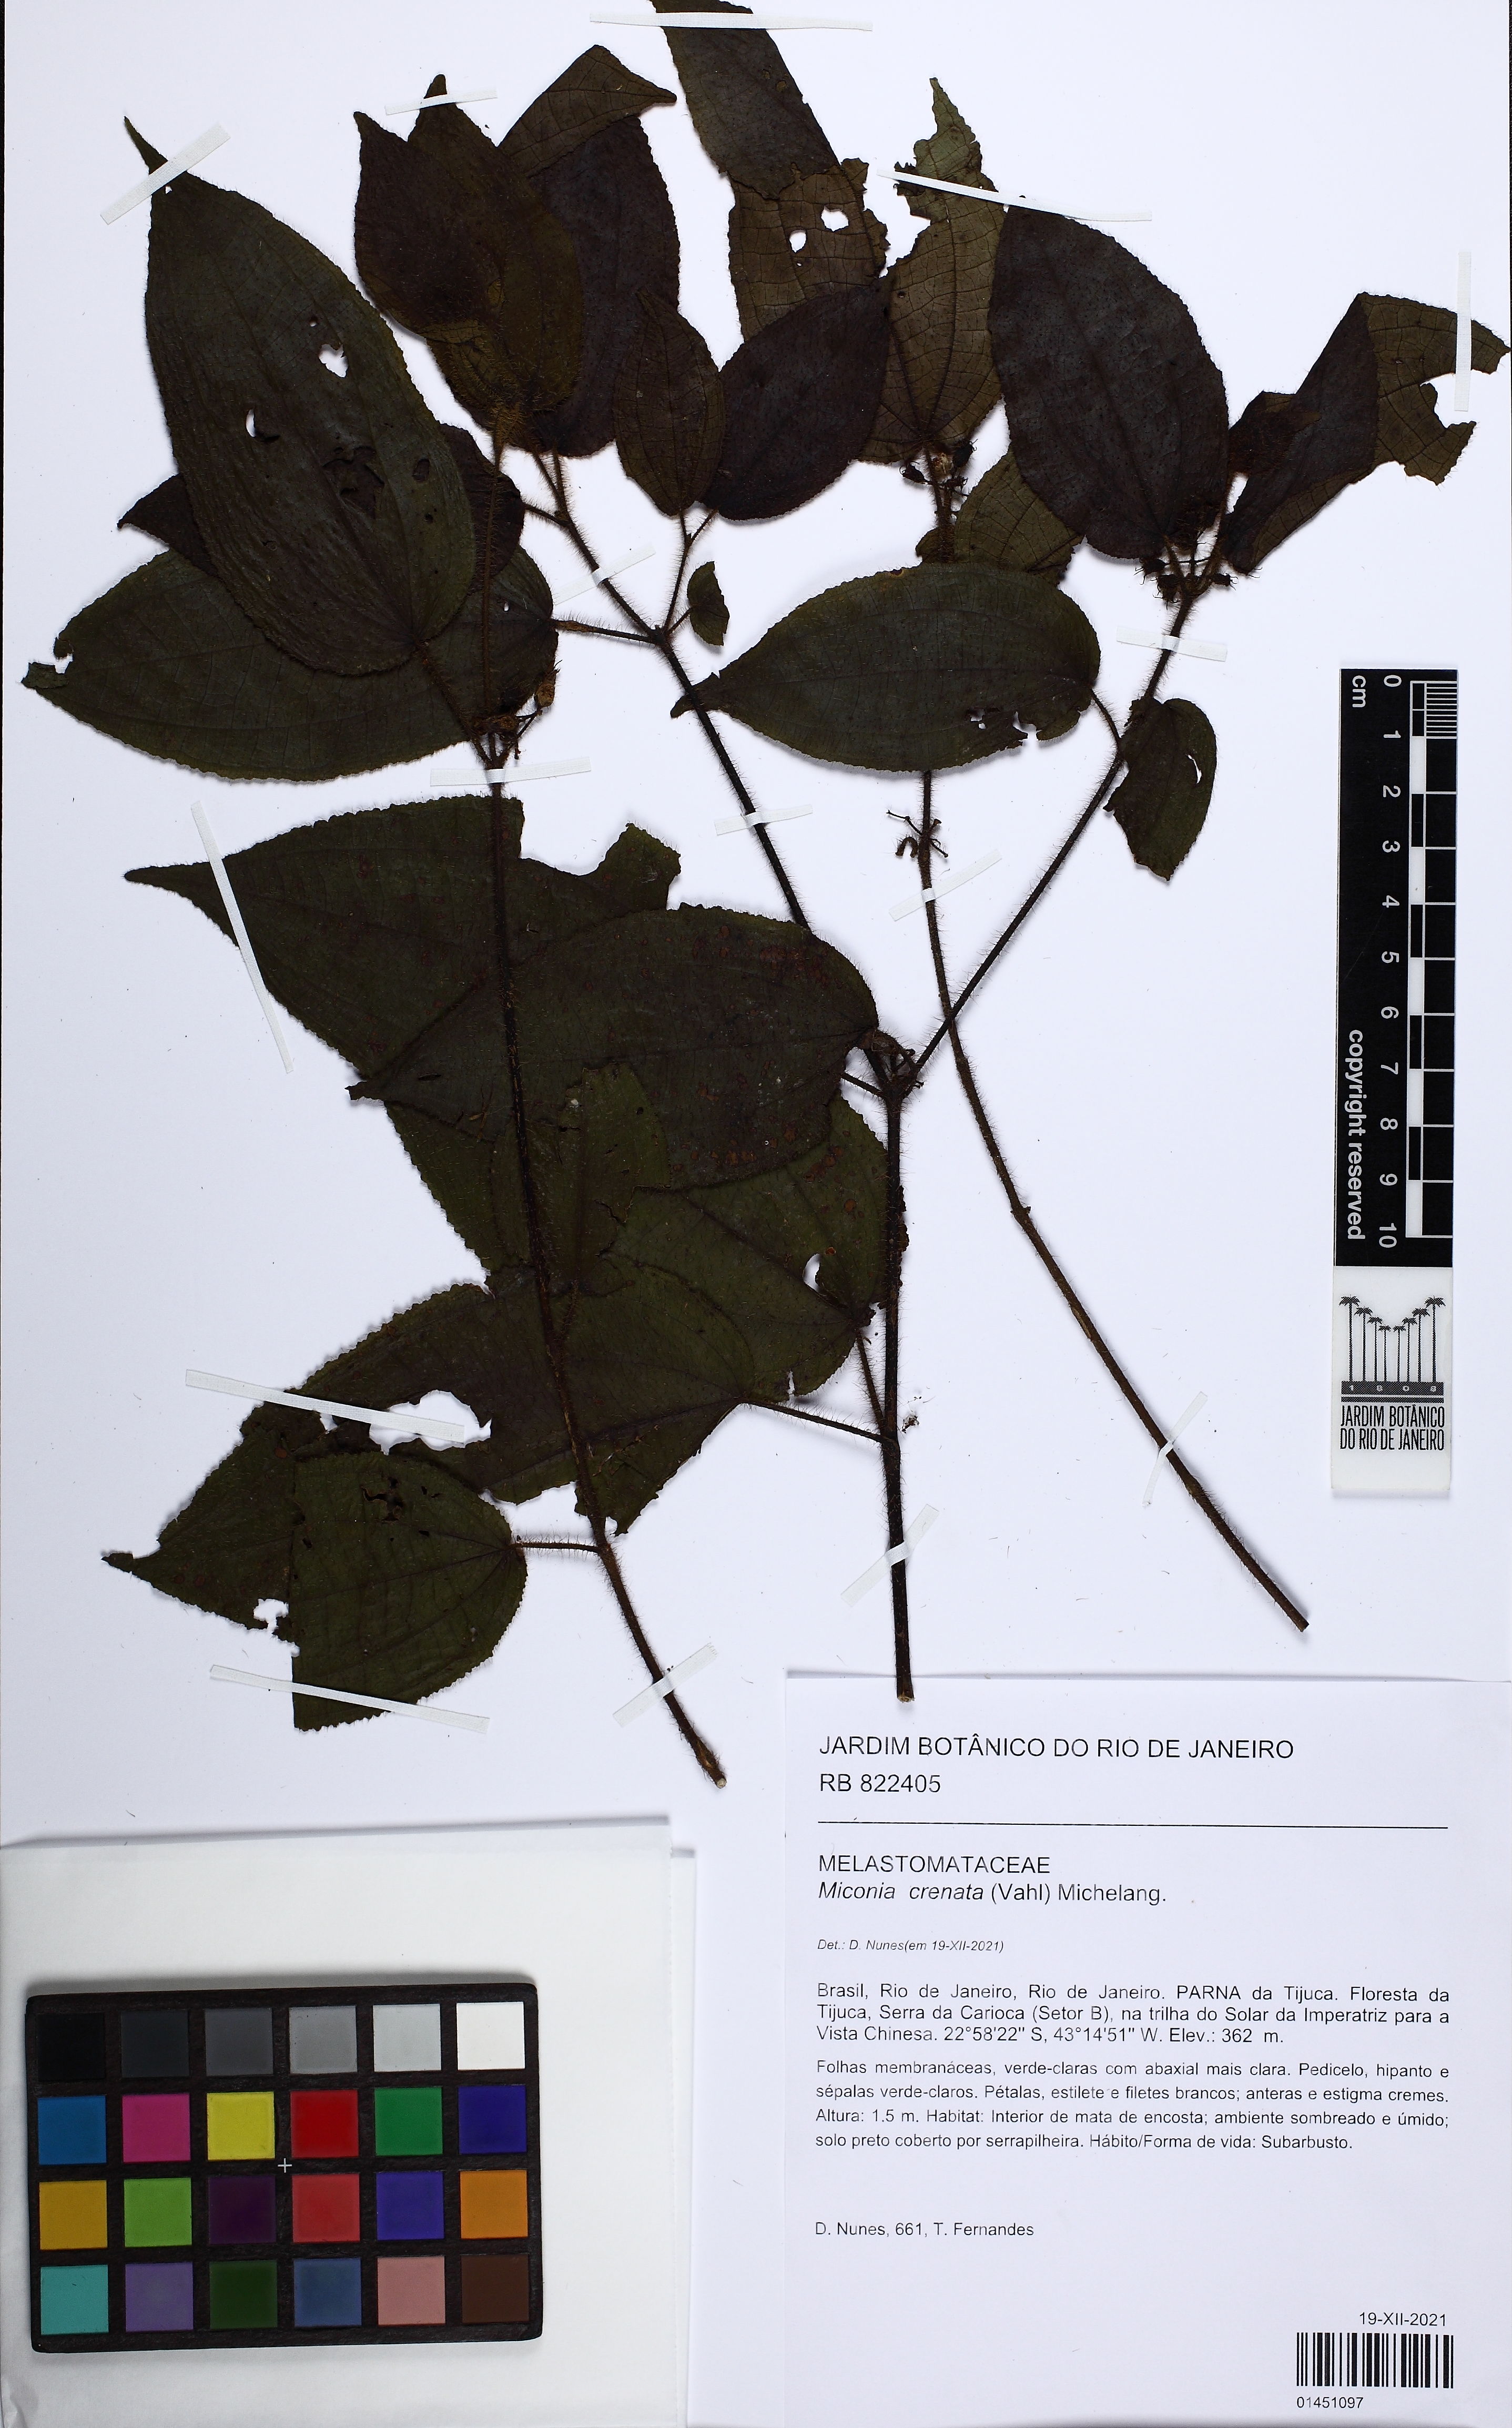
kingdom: Plantae
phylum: Tracheophyta
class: Magnoliopsida
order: Myrtales
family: Melastomataceae
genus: Miconia
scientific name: Miconia crenata
